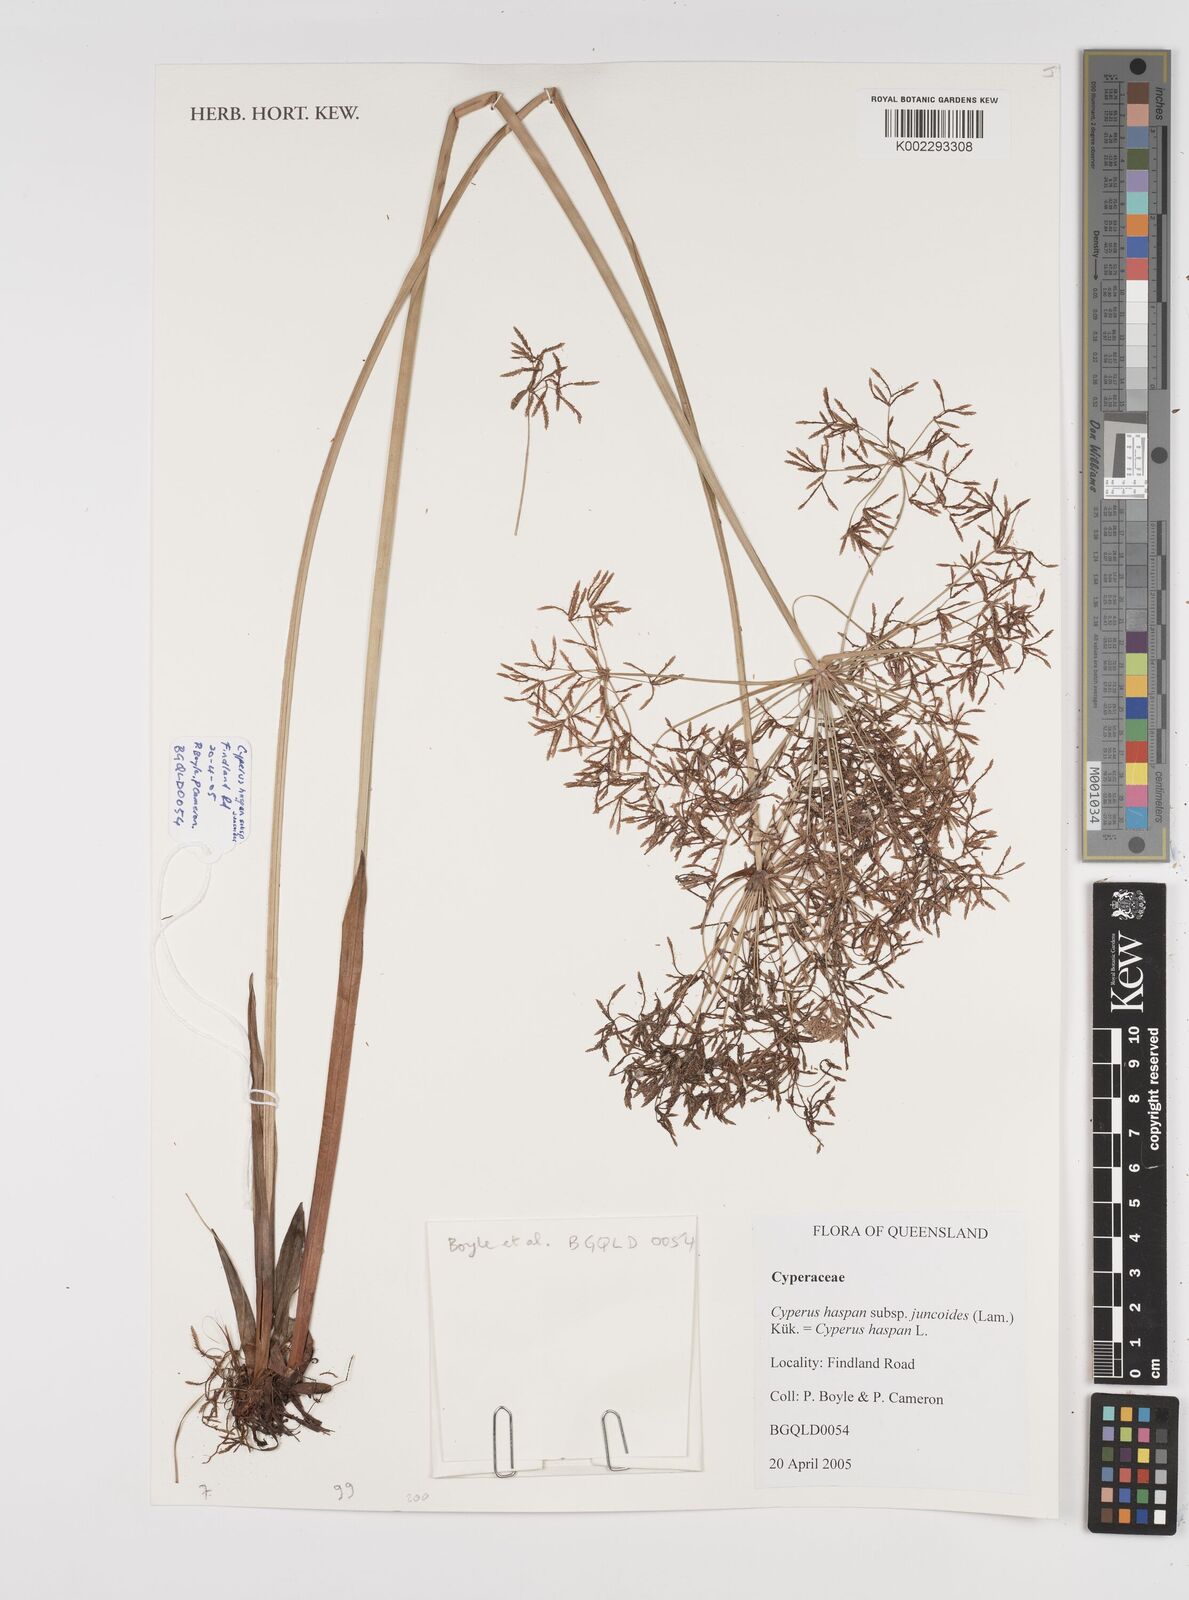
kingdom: Plantae
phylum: Tracheophyta
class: Liliopsida
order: Poales
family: Cyperaceae
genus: Cyperus
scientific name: Cyperus haspan
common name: Haspan flatsedge
